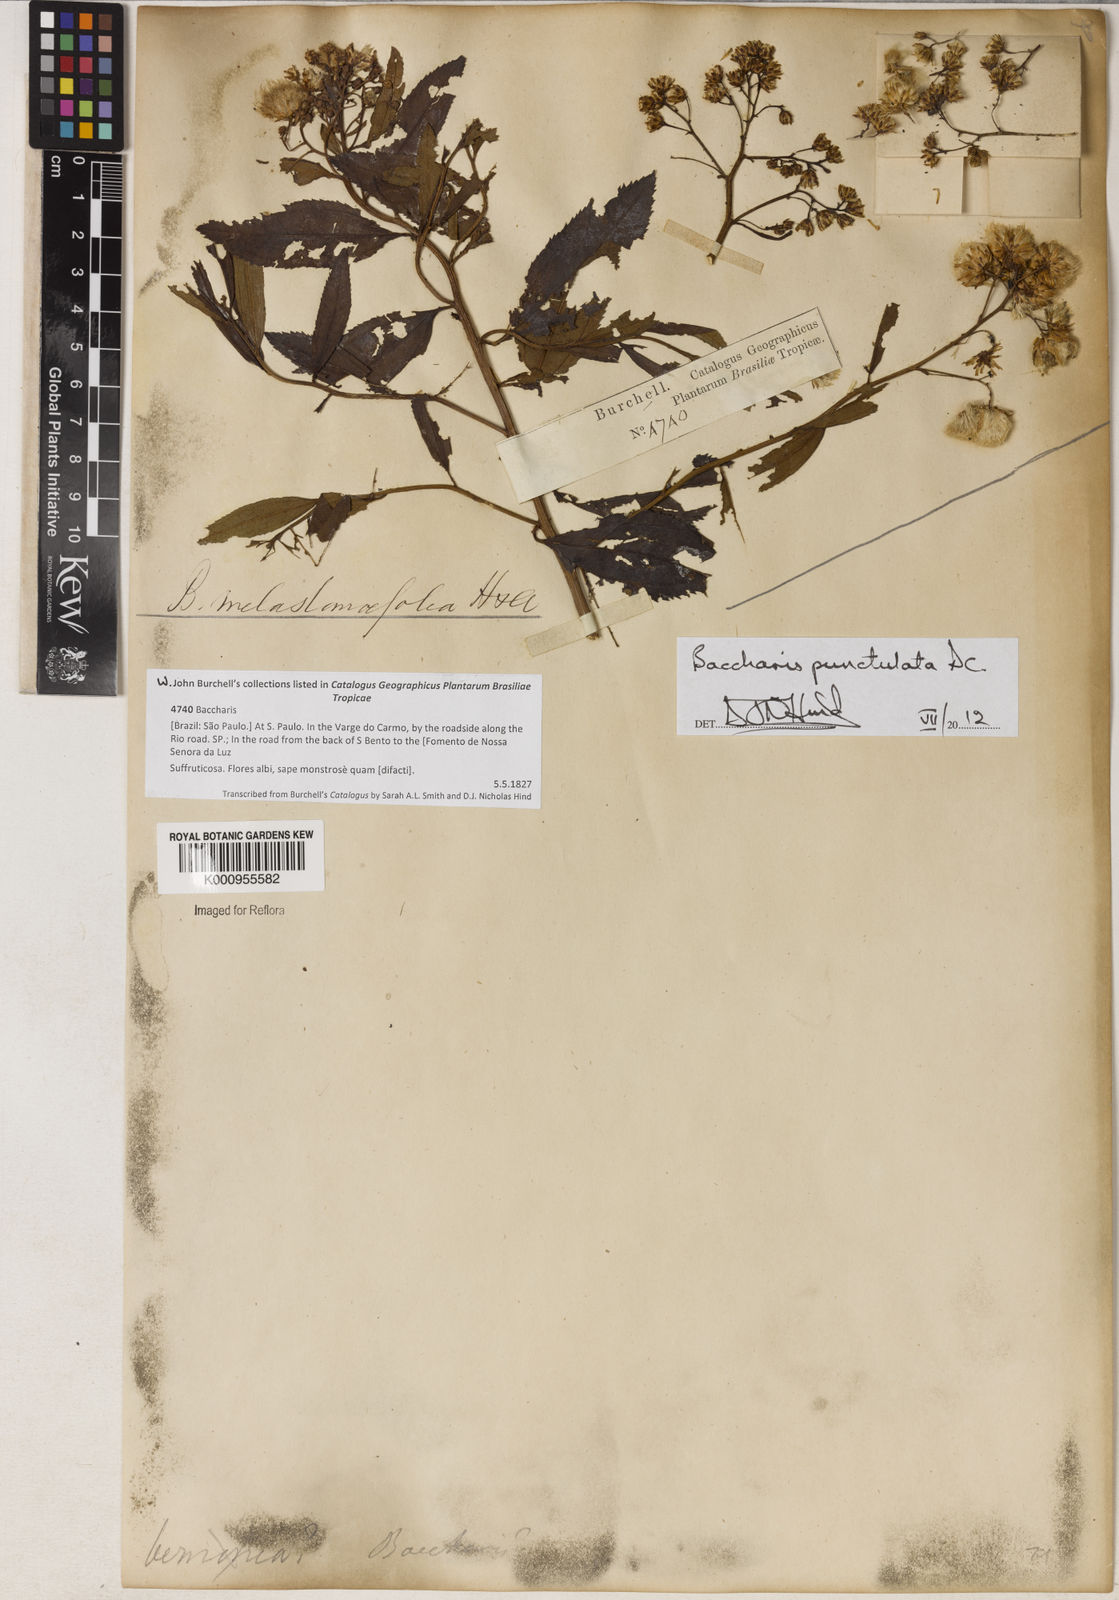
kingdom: Plantae
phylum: Tracheophyta
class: Magnoliopsida
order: Asterales
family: Asteraceae
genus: Baccharis
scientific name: Baccharis punctulata
